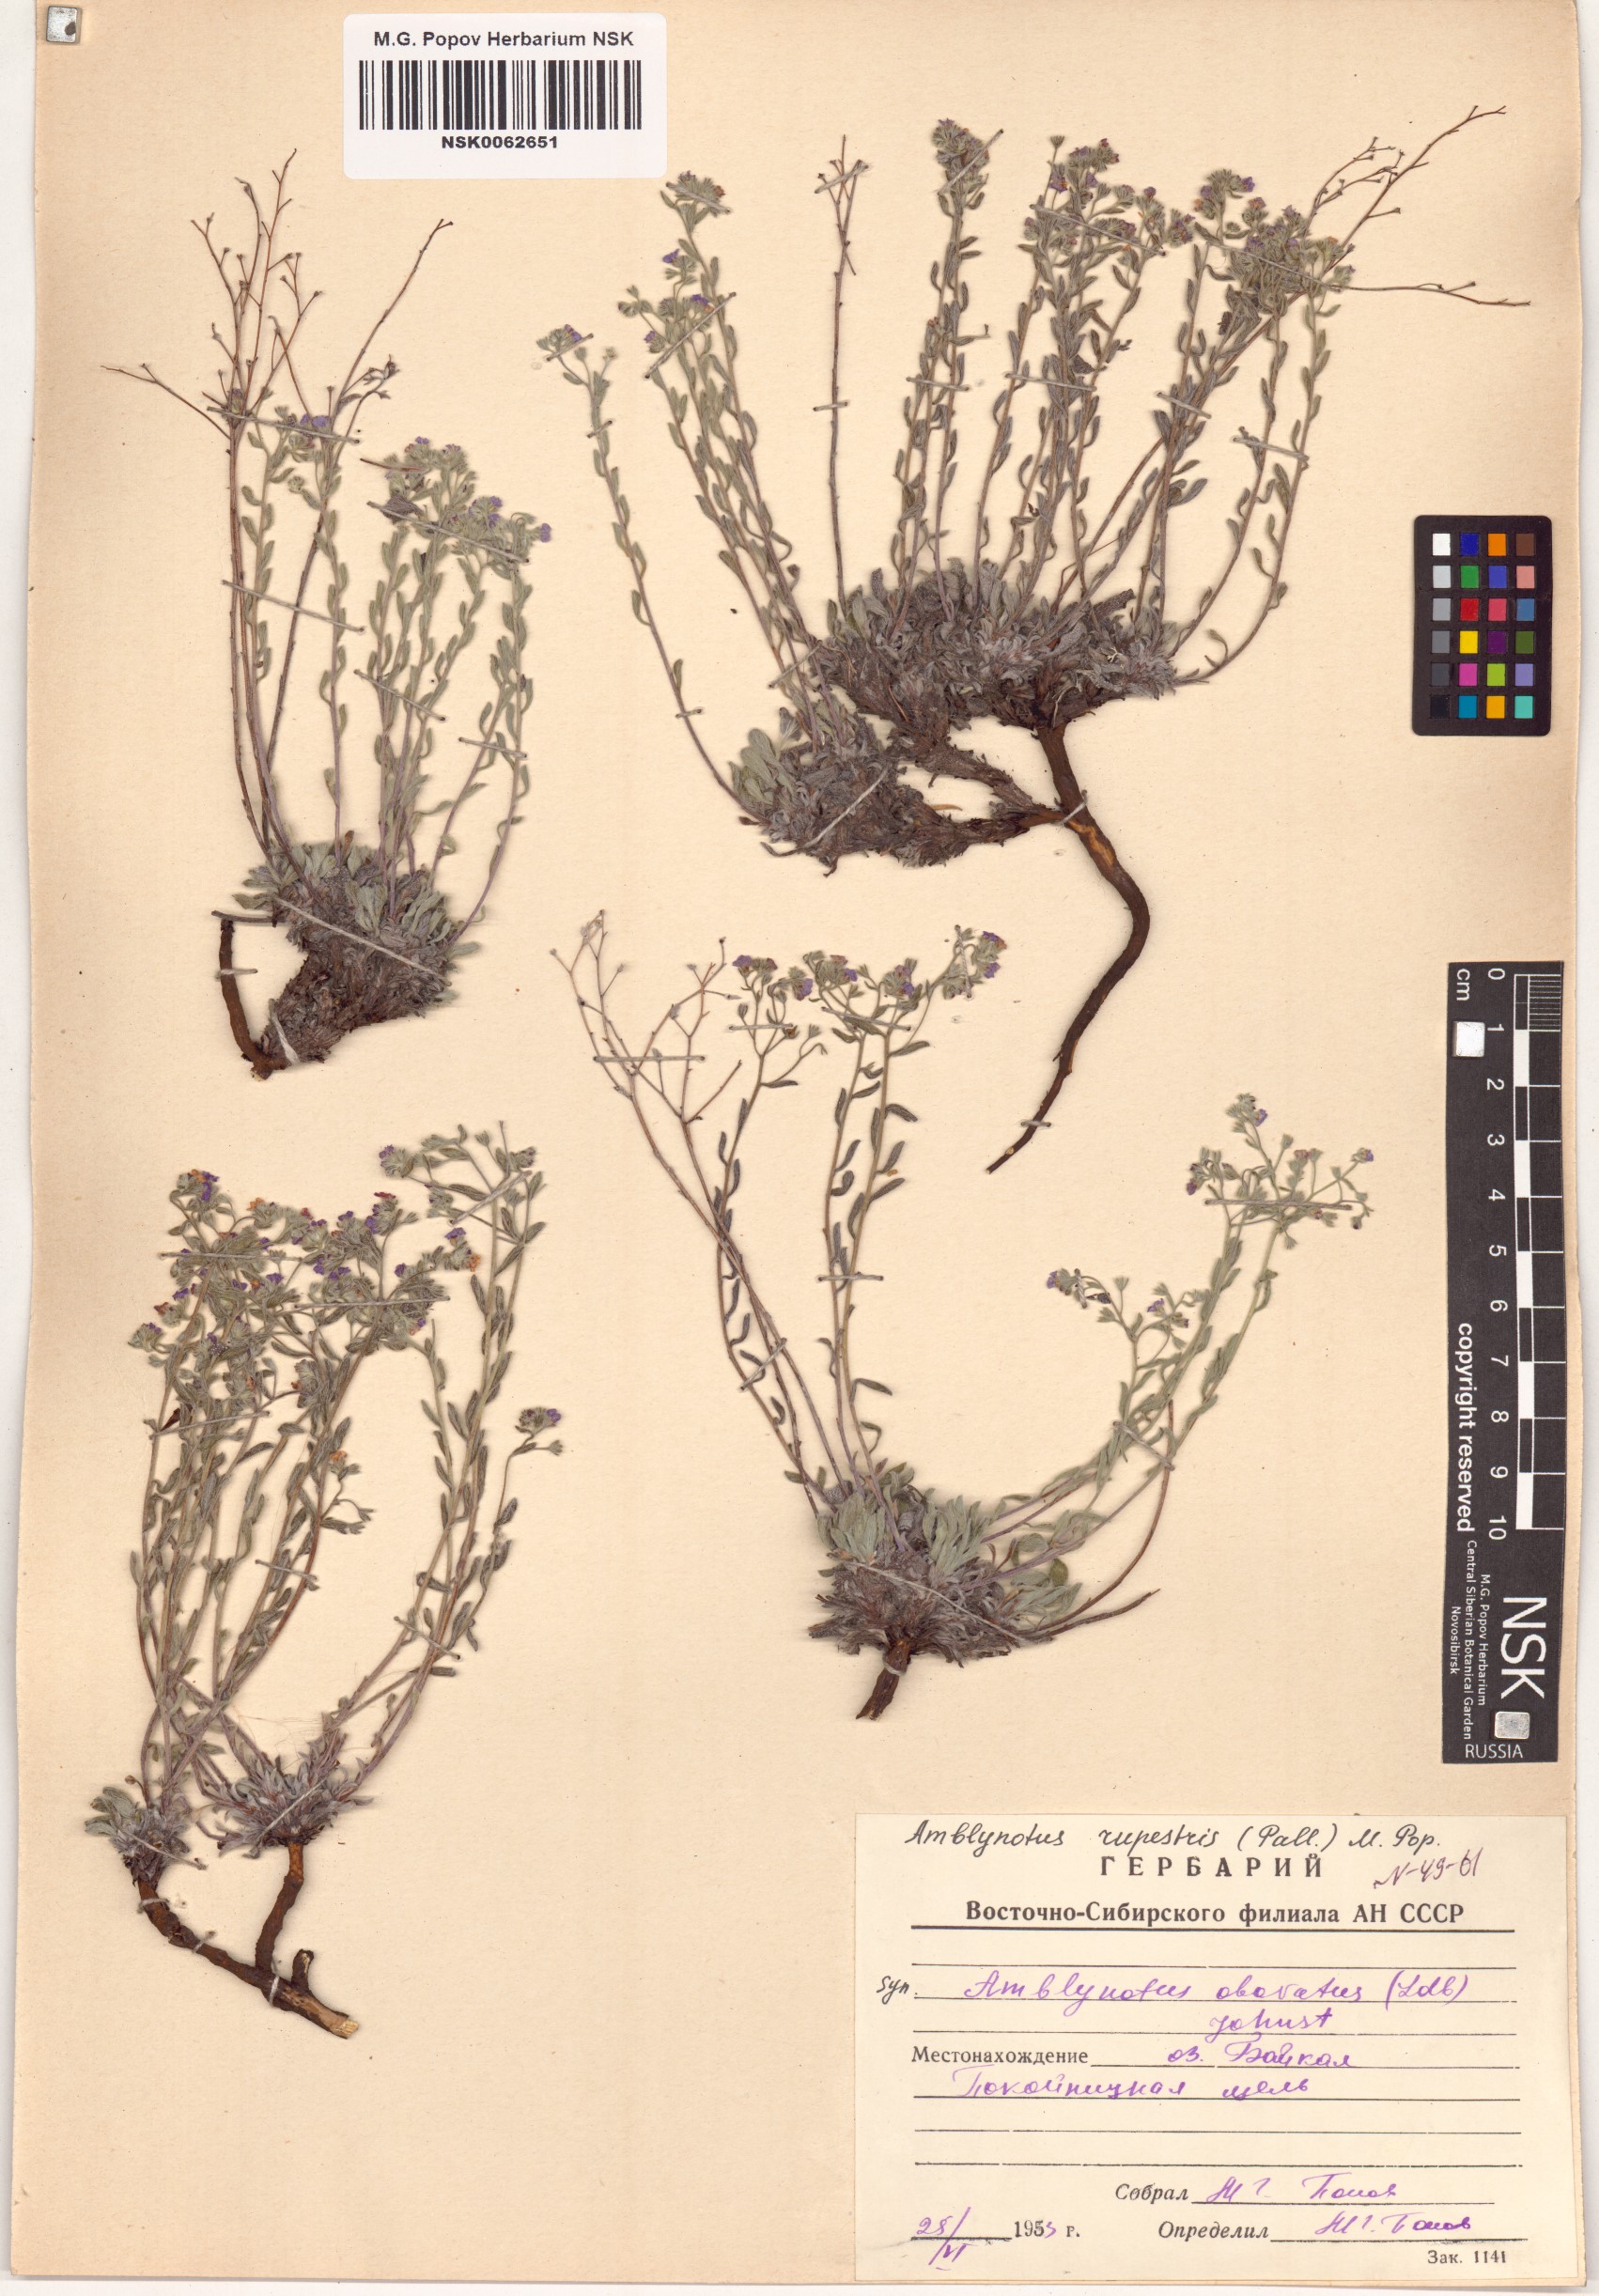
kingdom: Plantae
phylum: Tracheophyta
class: Magnoliopsida
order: Boraginales
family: Boraginaceae
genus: Eritrichium
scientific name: Eritrichium rupestre
